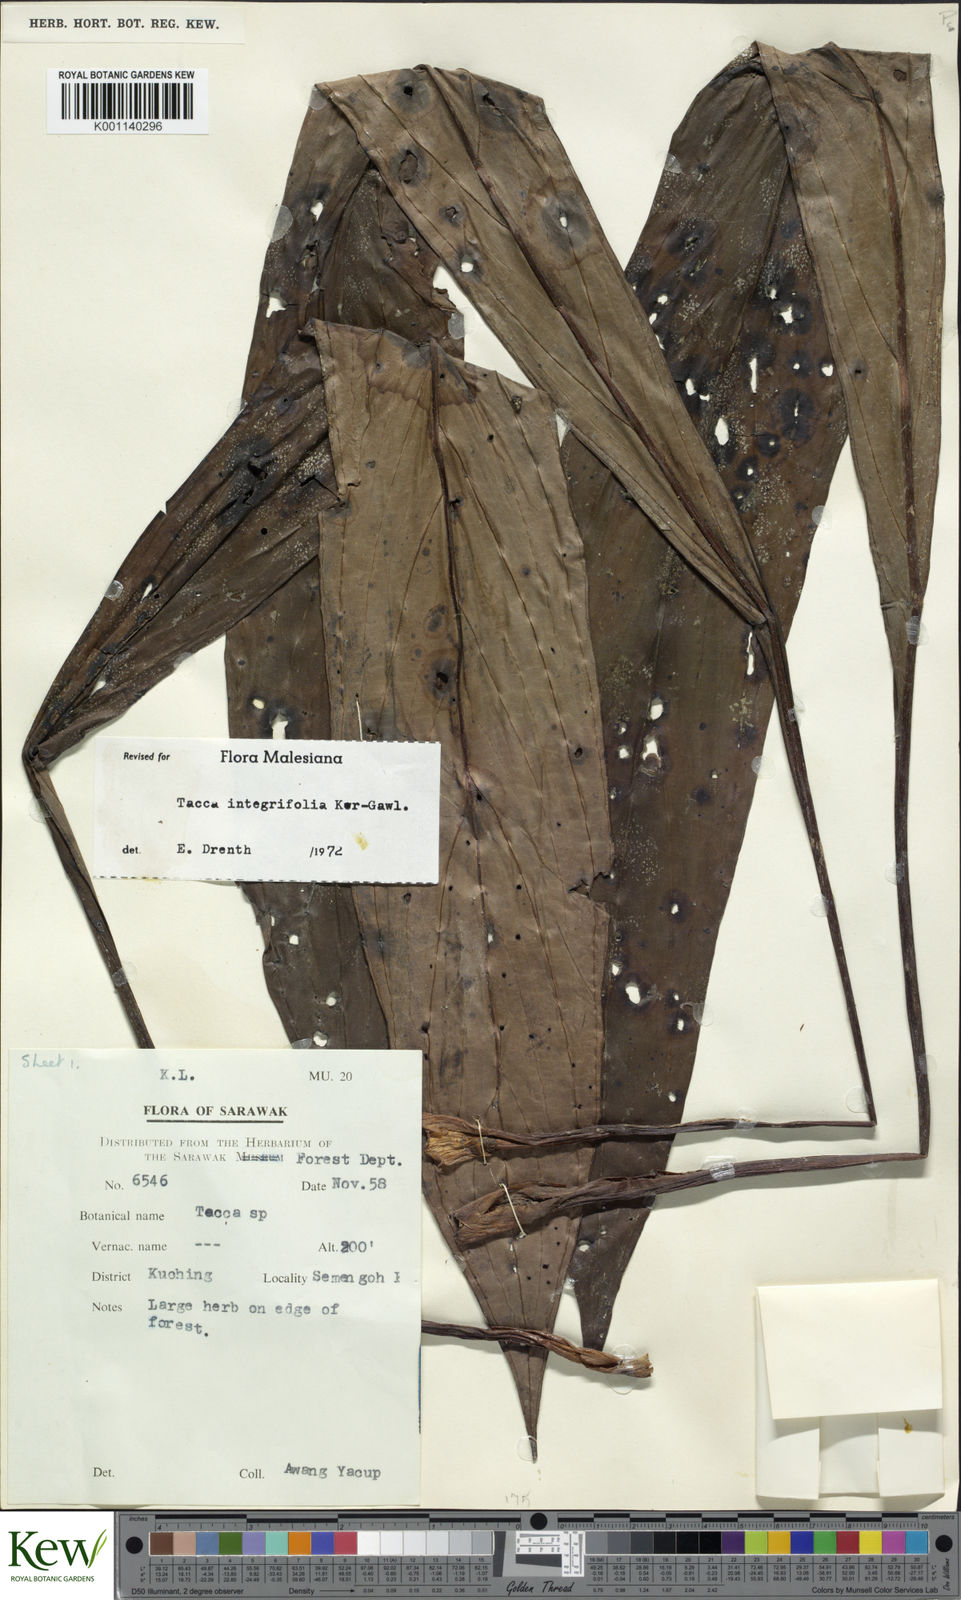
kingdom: Plantae
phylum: Tracheophyta
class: Liliopsida
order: Dioscoreales
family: Dioscoreaceae
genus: Tacca
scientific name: Tacca integrifolia
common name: Batplant
